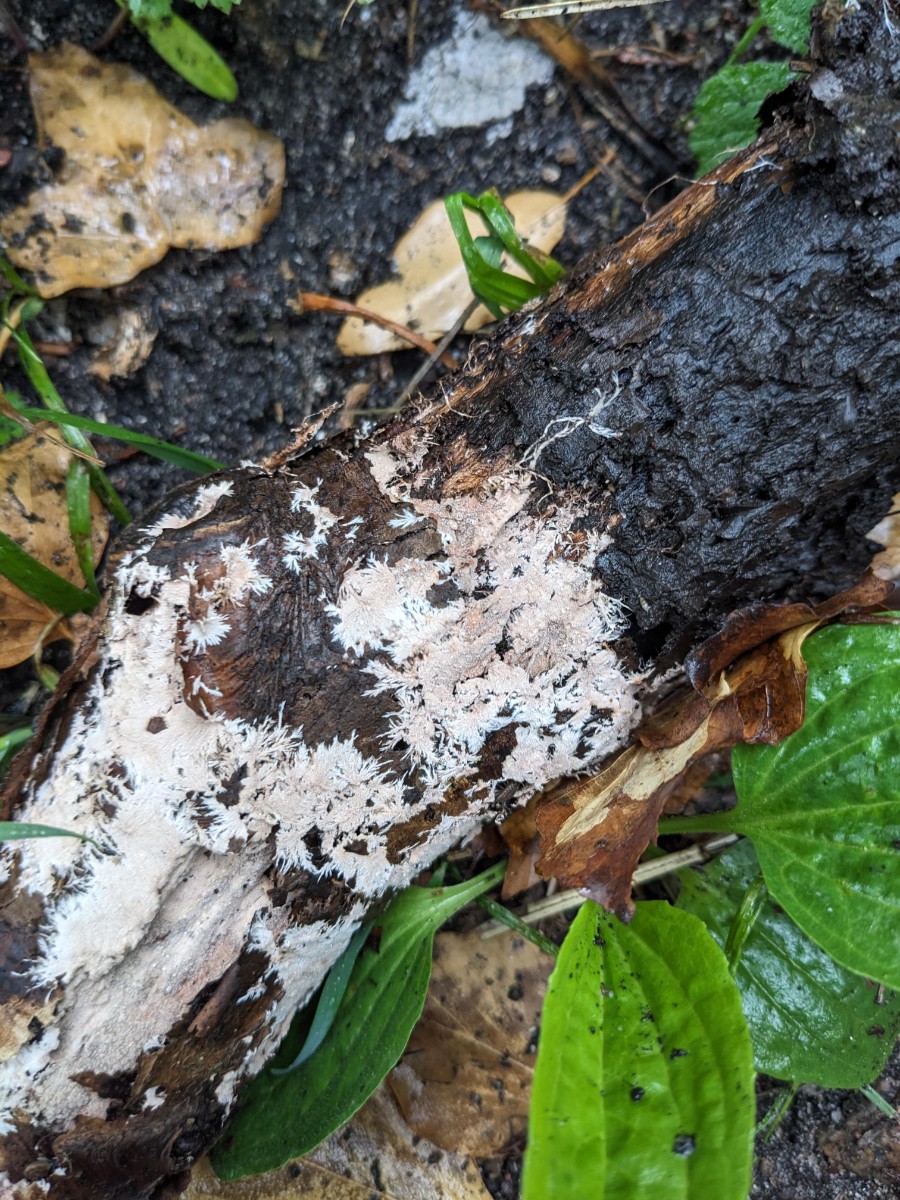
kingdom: Fungi
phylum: Basidiomycota
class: Agaricomycetes
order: Polyporales
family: Steccherinaceae
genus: Steccherinum
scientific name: Steccherinum fimbriatum
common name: trådet skønpig
